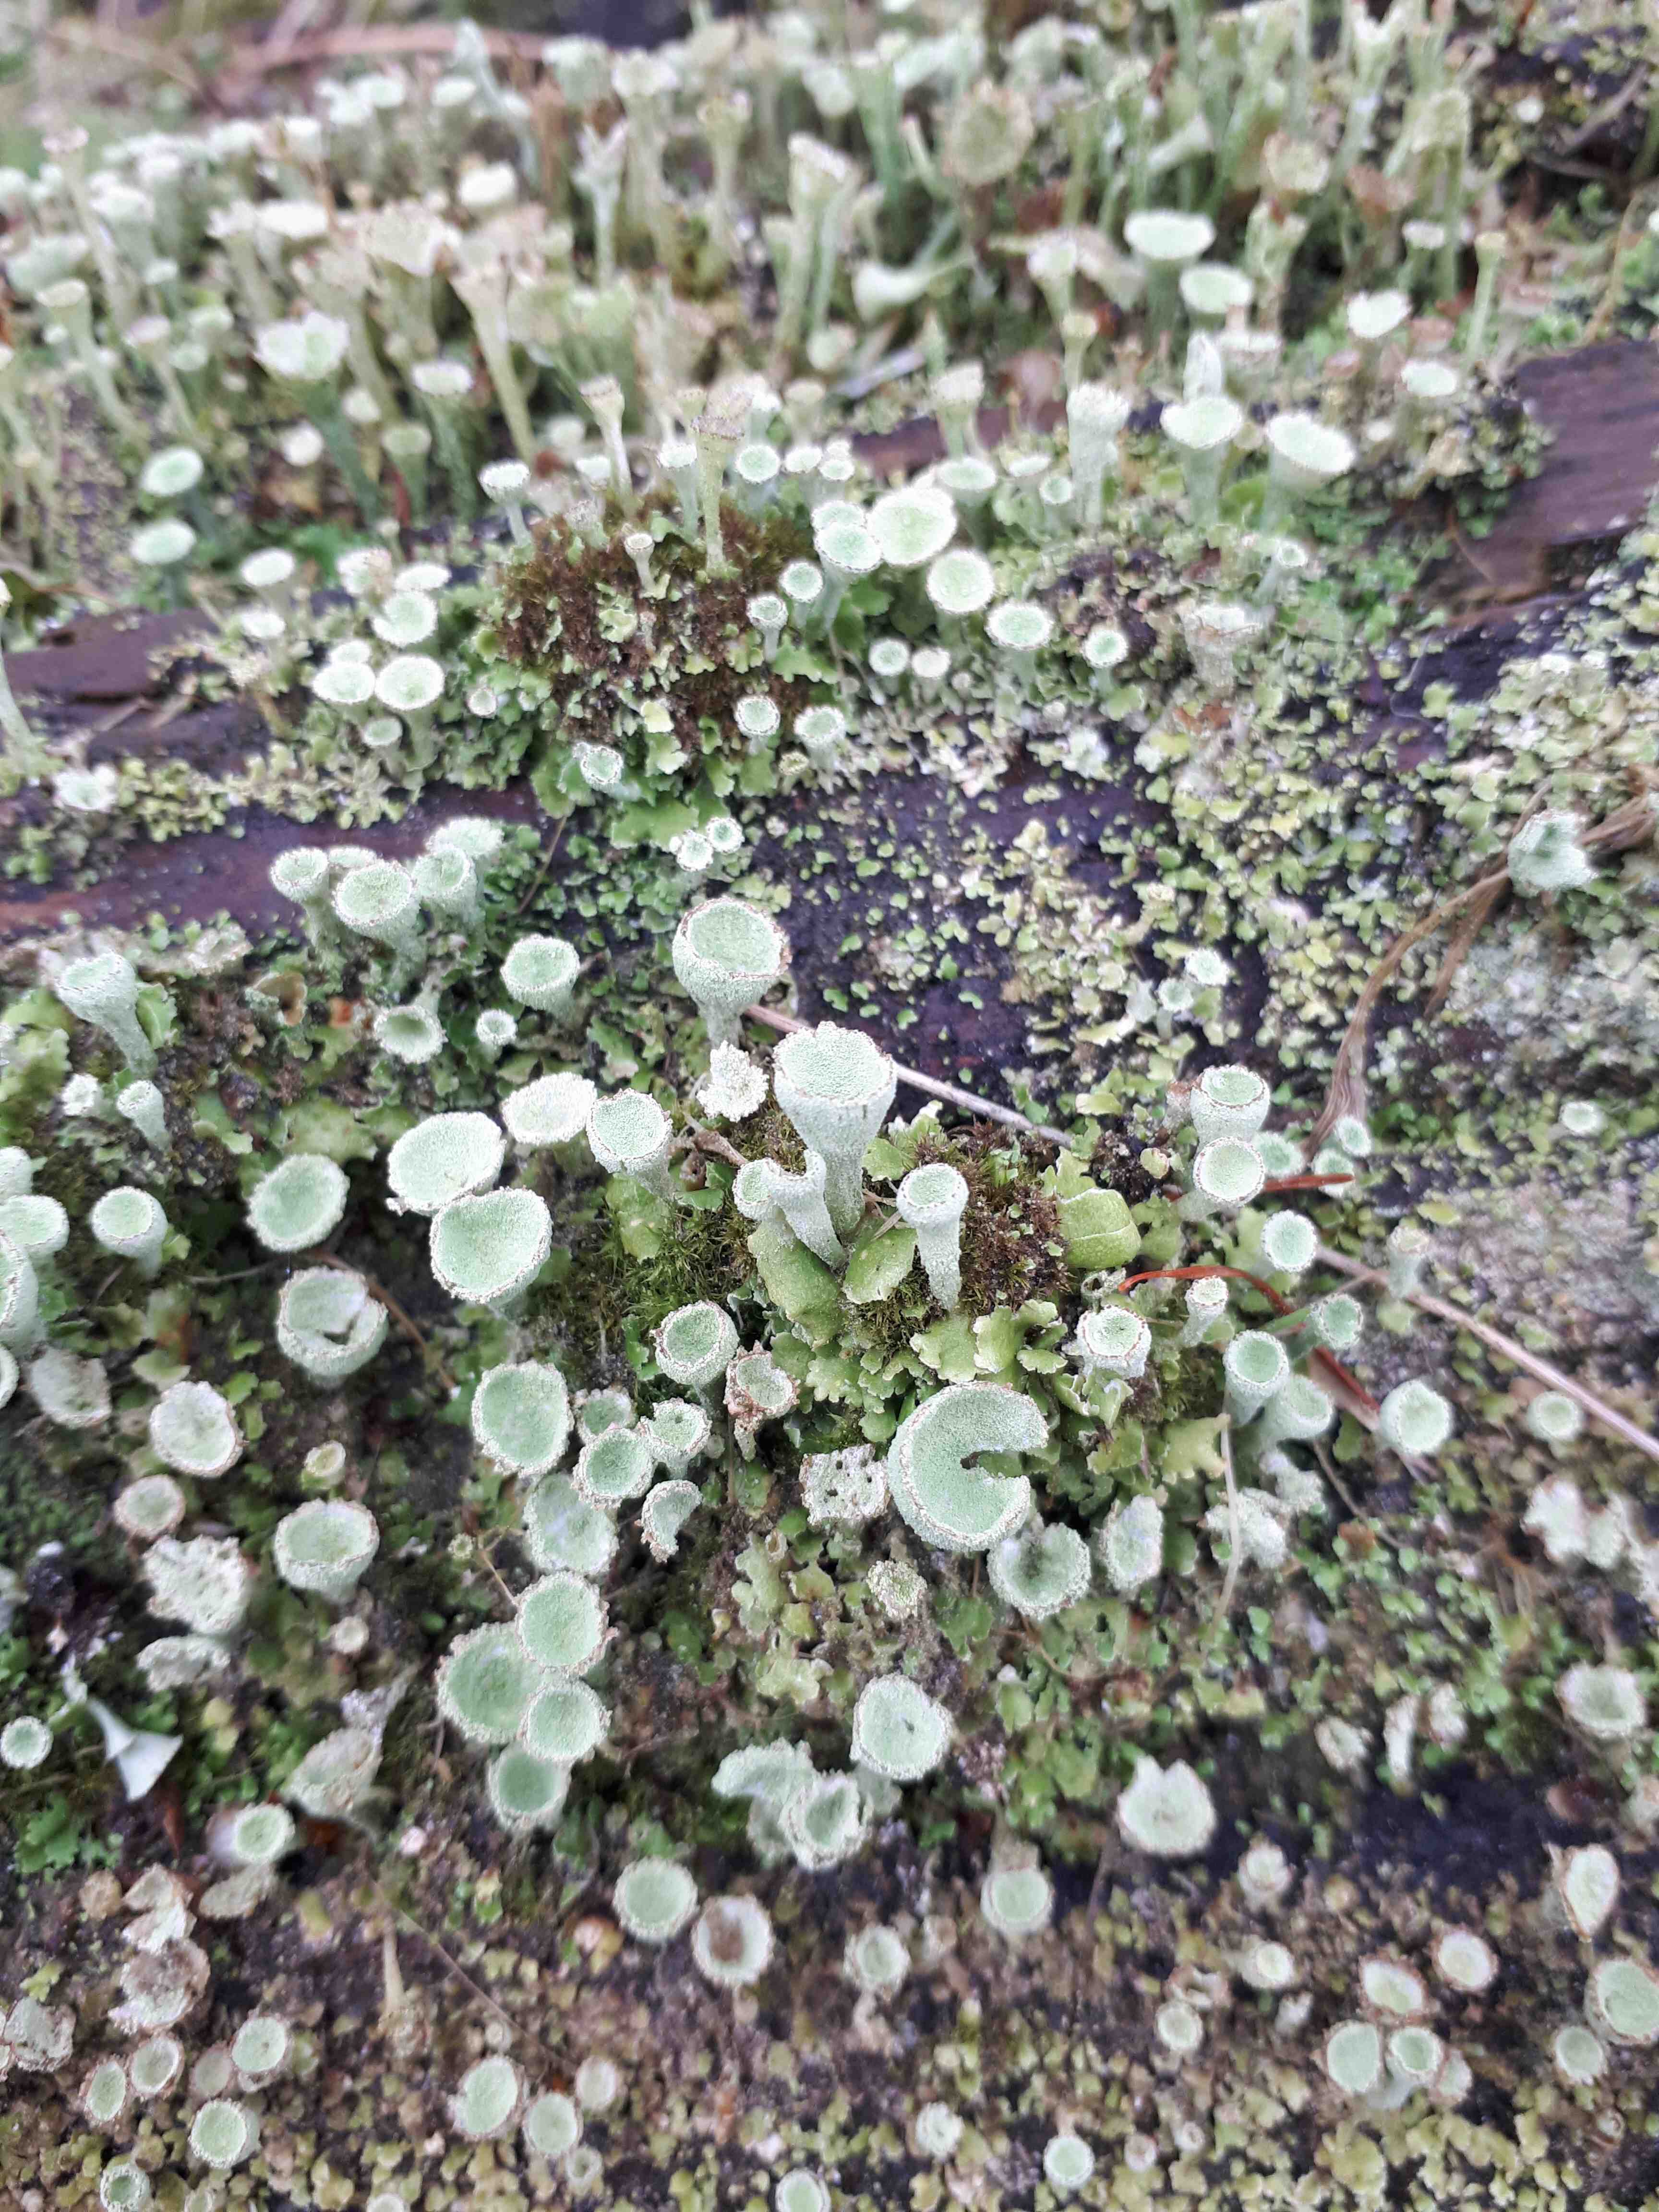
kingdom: Fungi
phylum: Ascomycota
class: Lecanoromycetes
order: Lecanorales
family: Cladoniaceae
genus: Cladonia
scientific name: Cladonia humilis
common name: lav bægerlav
